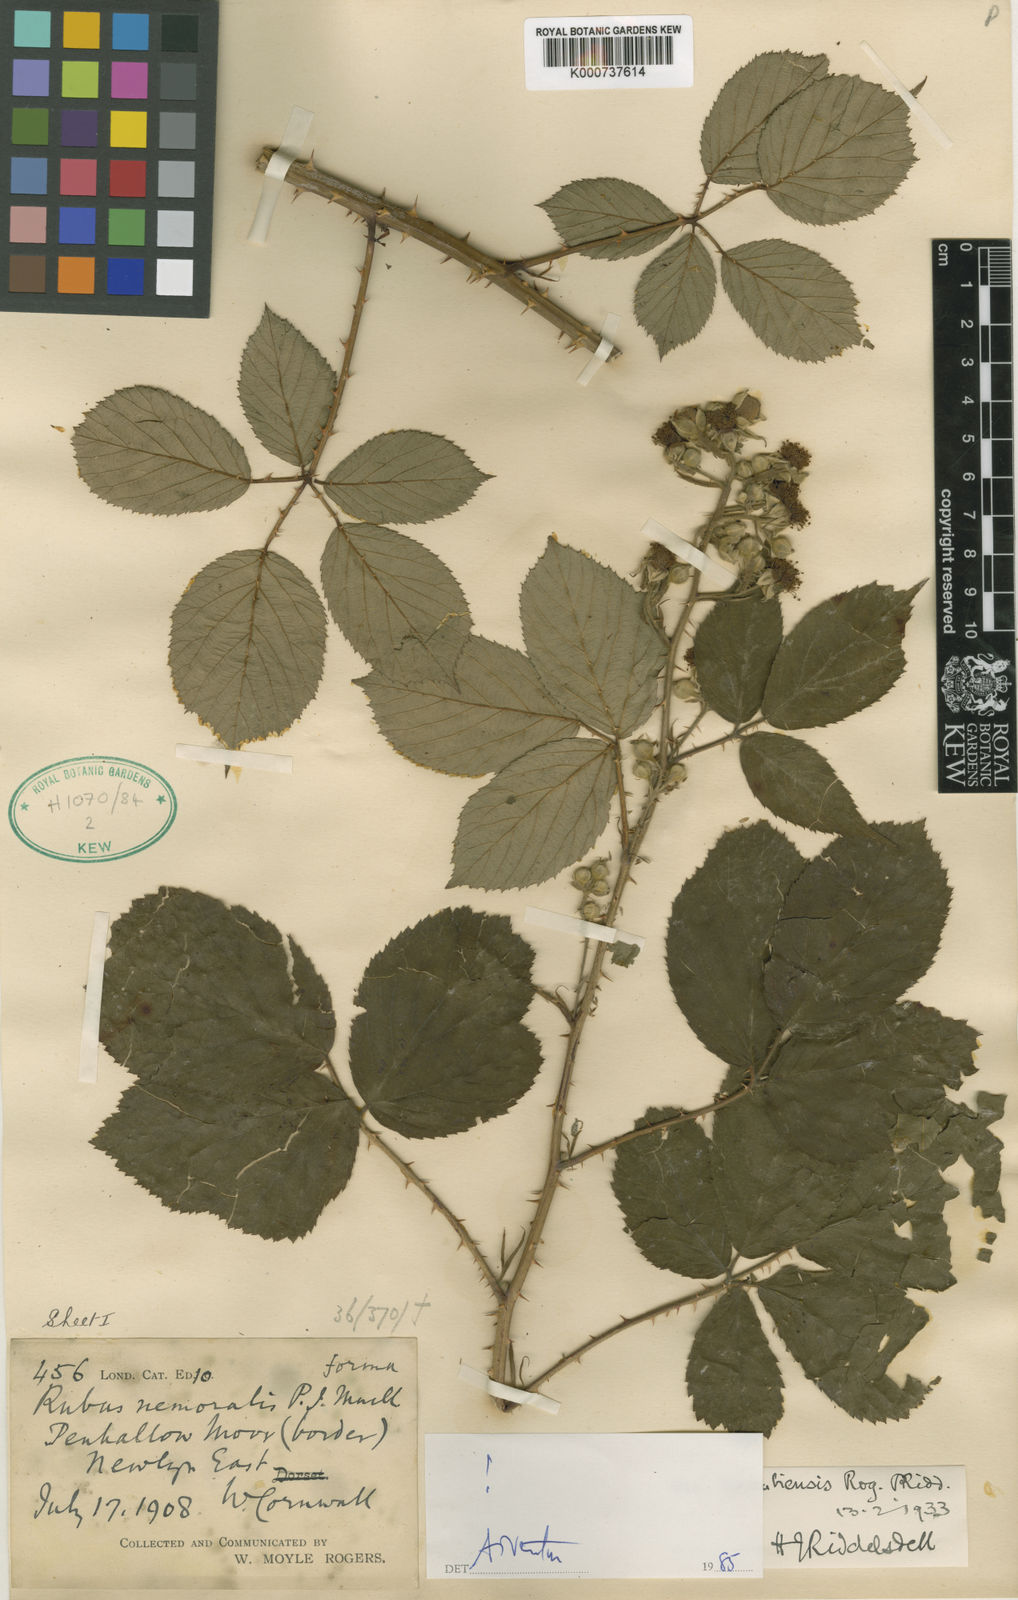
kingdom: Plantae
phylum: Tracheophyta
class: Magnoliopsida
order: Rosales
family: Rosaceae
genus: Rubus
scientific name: Rubus cornubiensis
